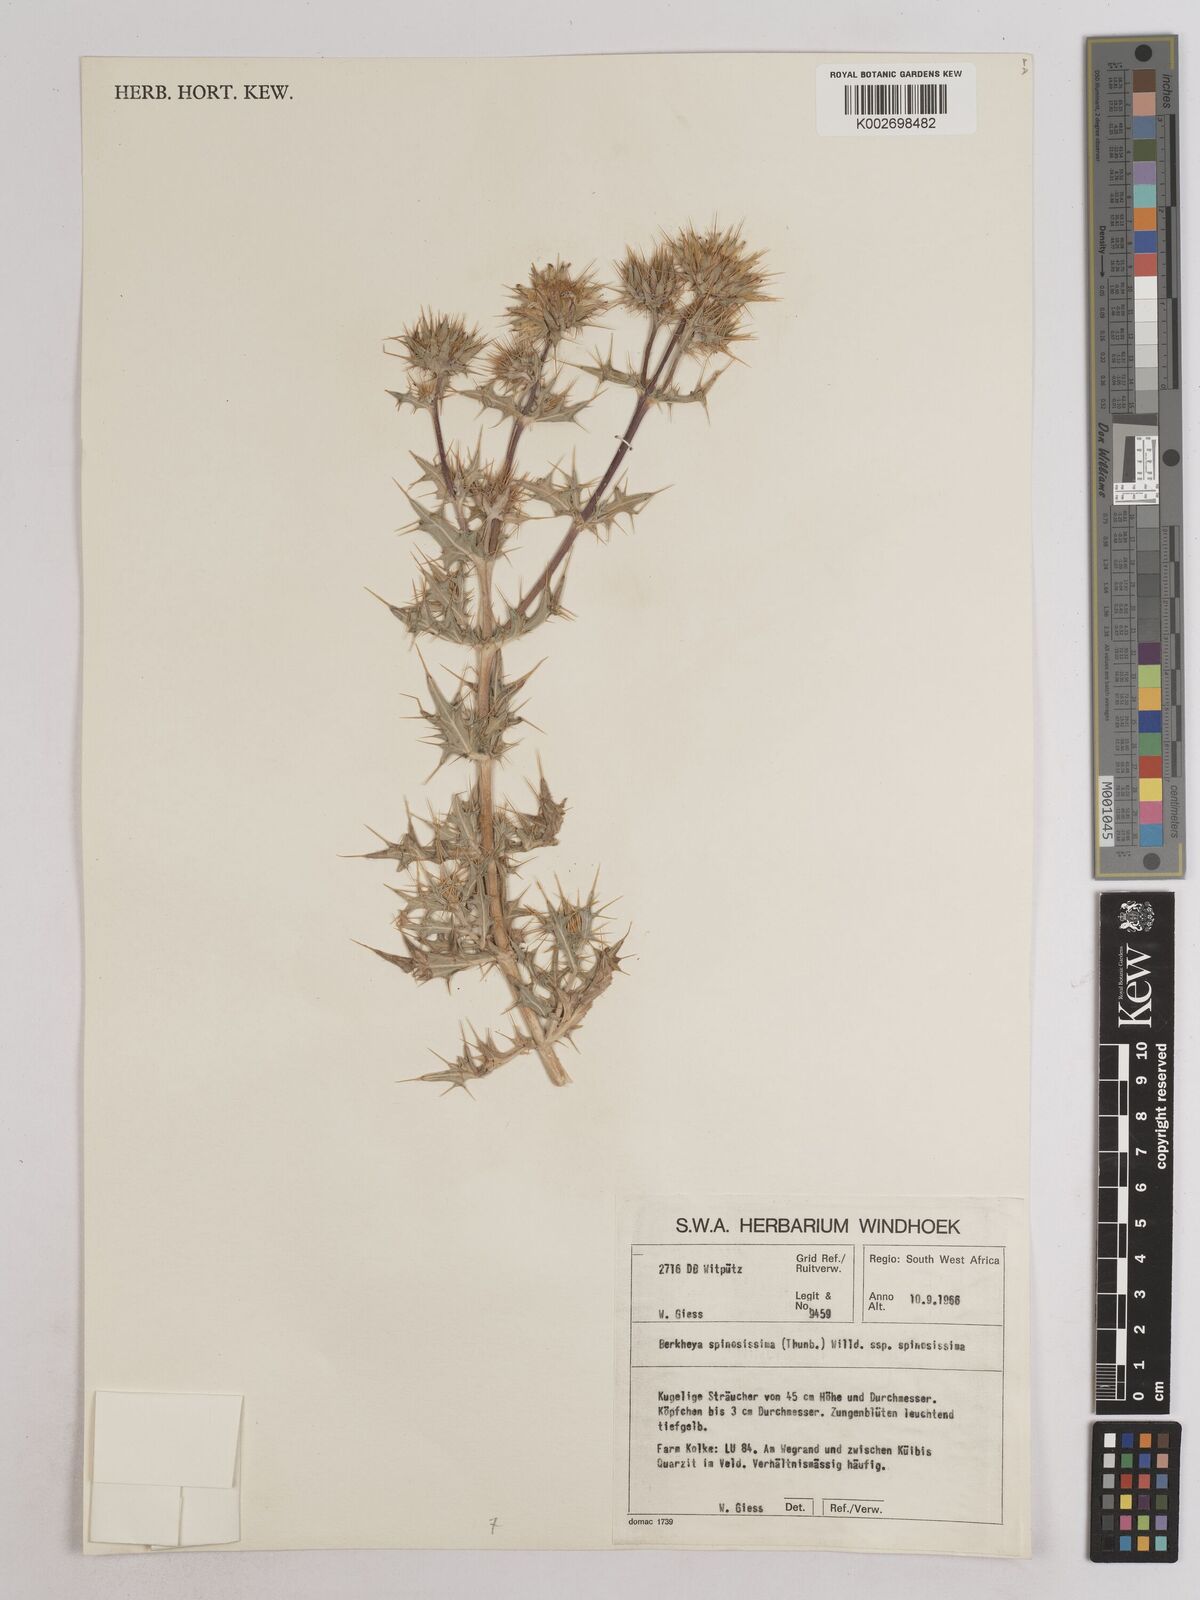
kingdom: Plantae
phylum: Tracheophyta
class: Magnoliopsida
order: Asterales
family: Asteraceae
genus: Berkheya
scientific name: Berkheya spinosissima
